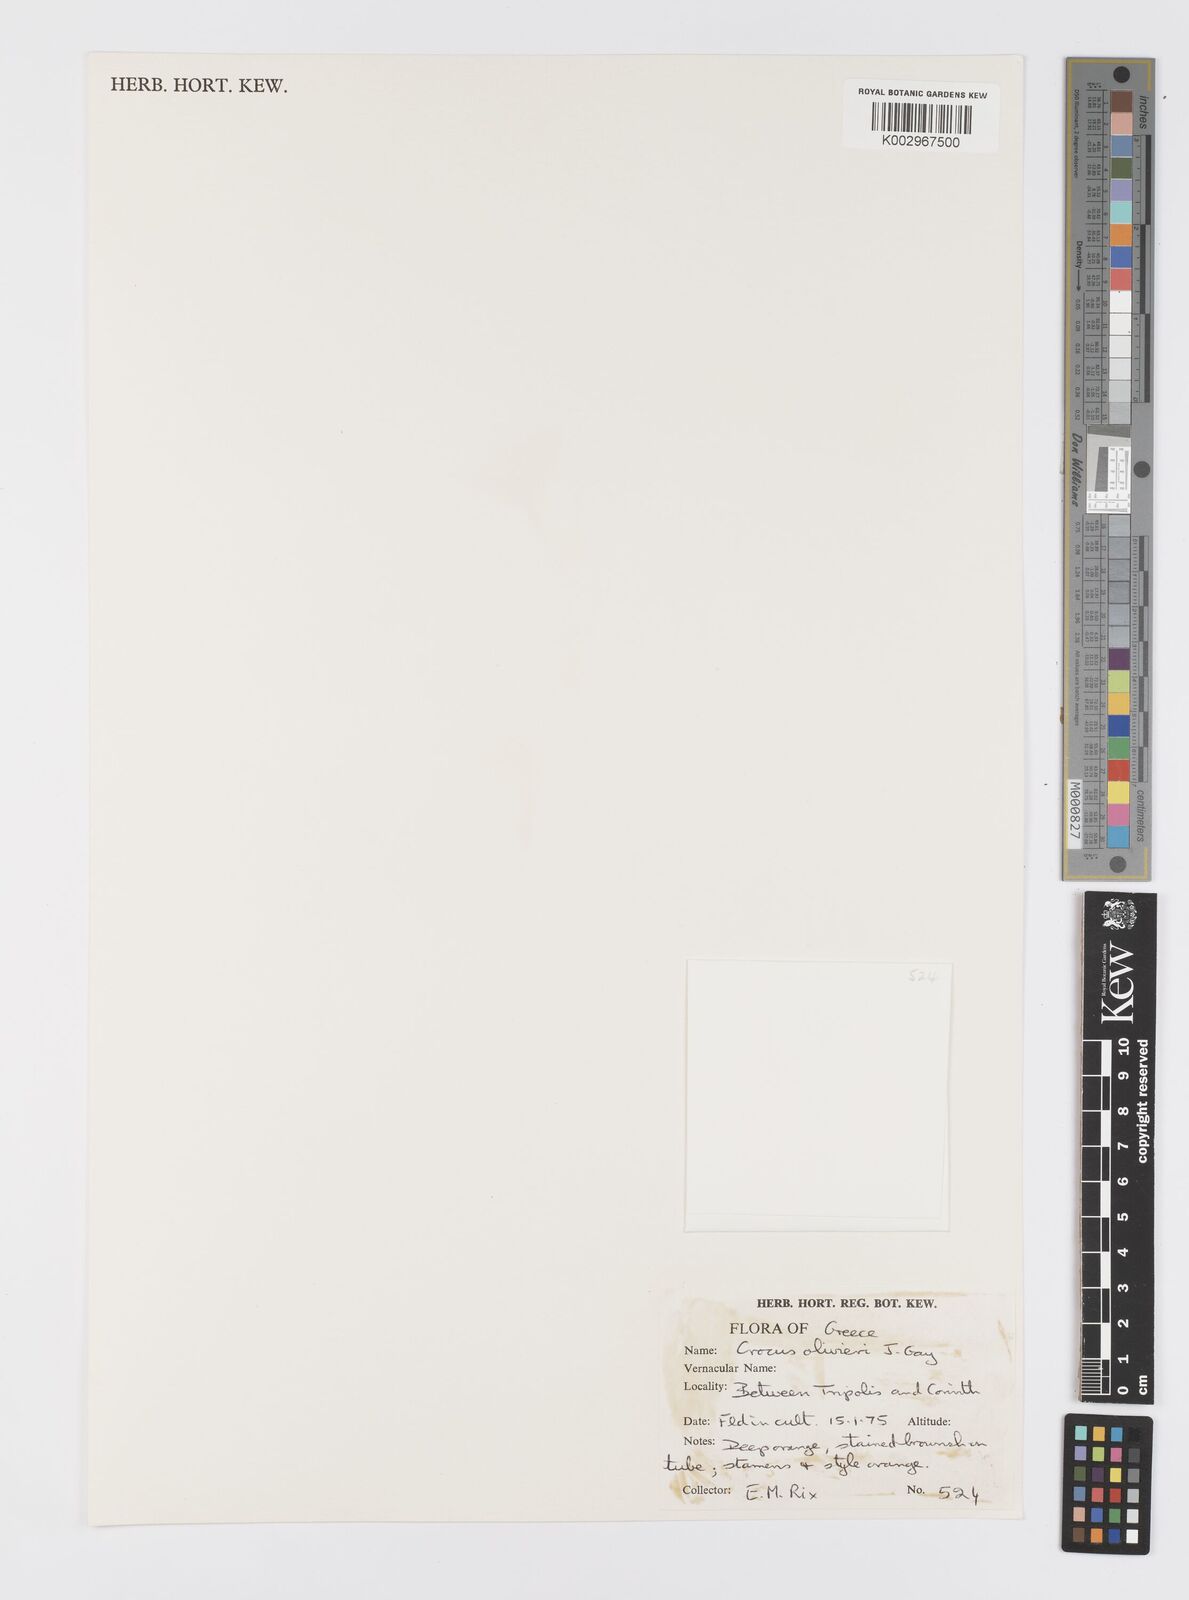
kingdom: Plantae
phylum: Tracheophyta
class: Liliopsida
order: Asparagales
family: Iridaceae
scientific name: Iridaceae
